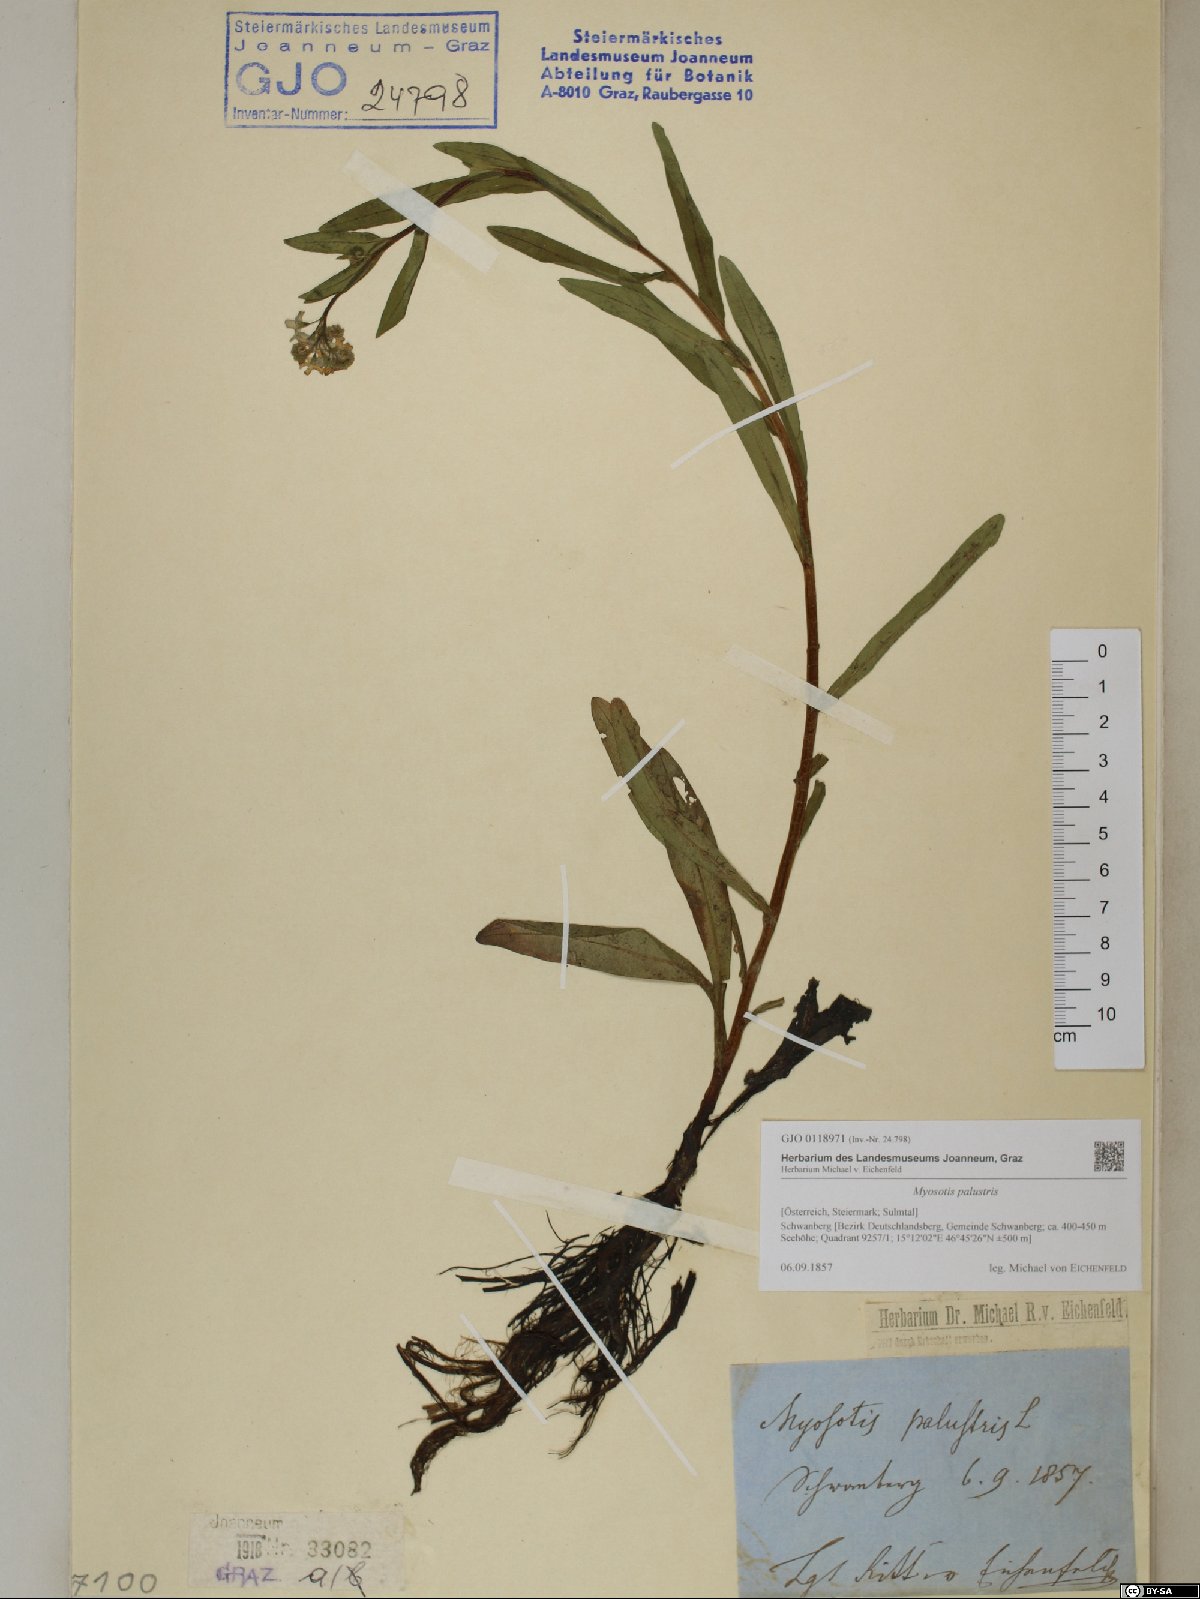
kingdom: Plantae
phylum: Tracheophyta
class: Magnoliopsida
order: Boraginales
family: Boraginaceae
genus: Myosotis
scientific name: Myosotis scorpioides
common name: Water forget-me-not
